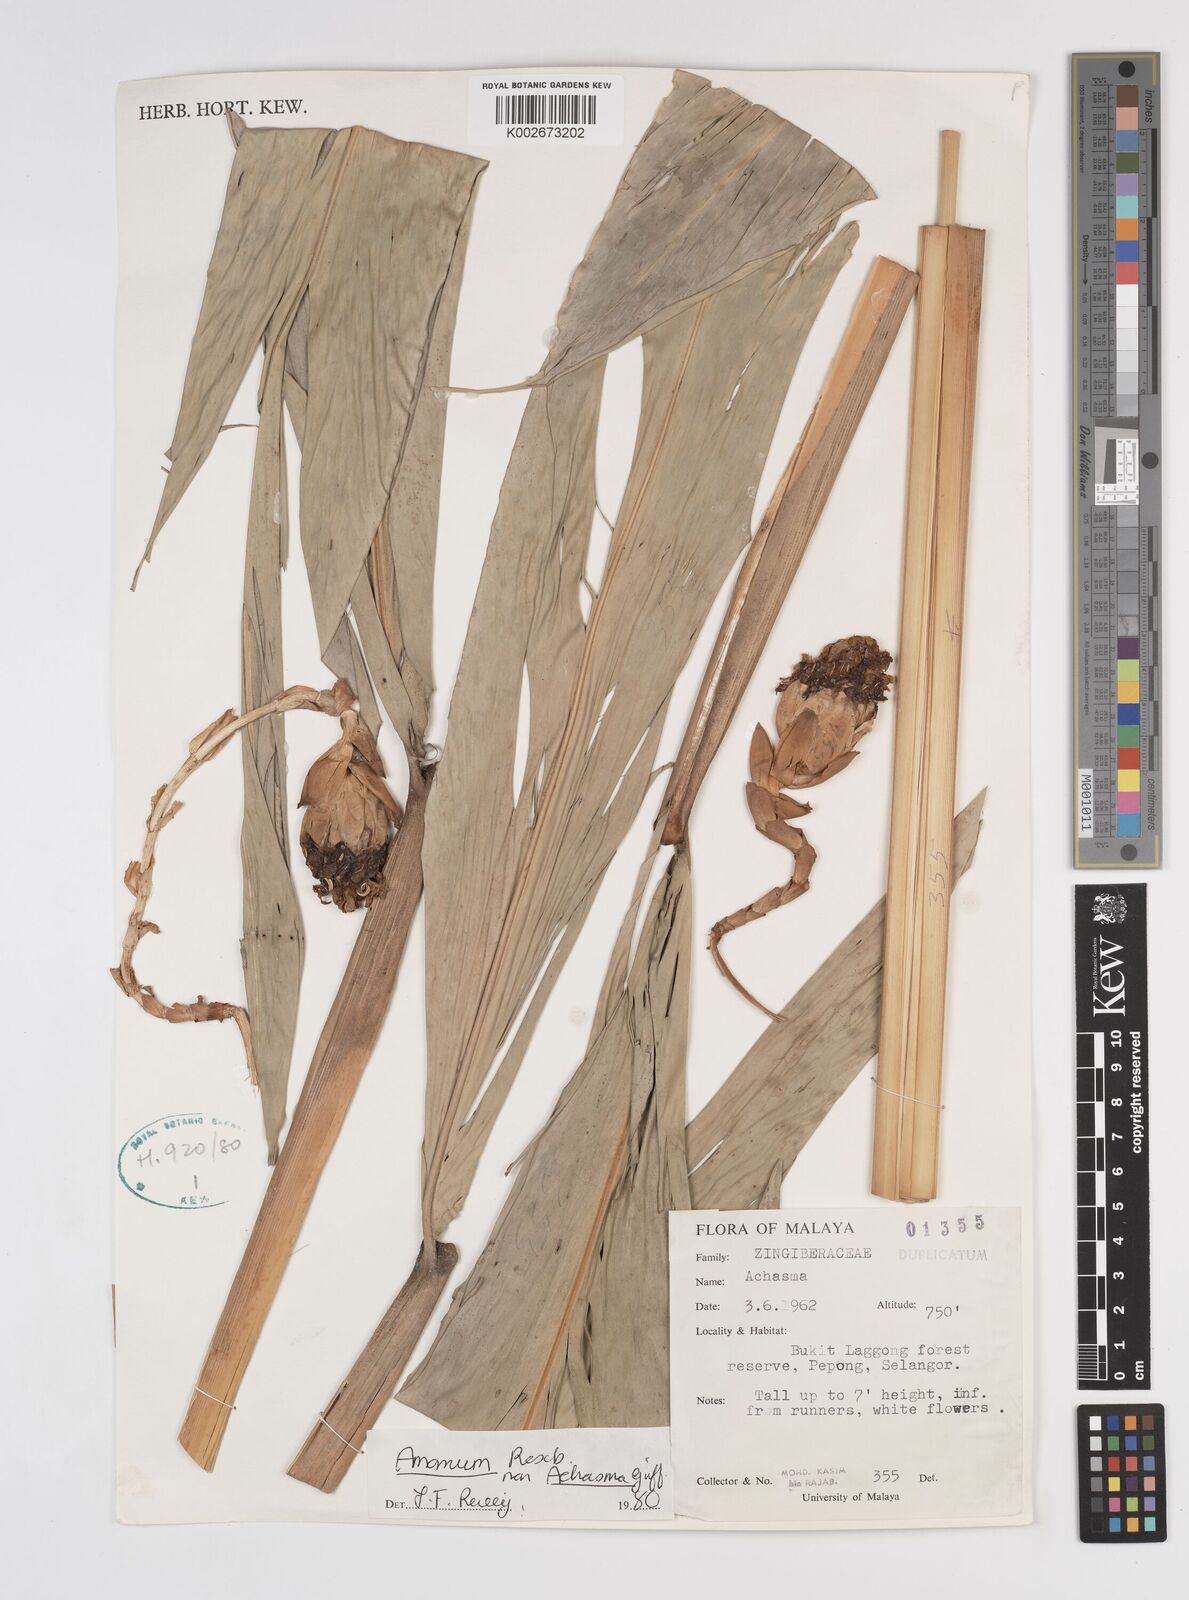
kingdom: Plantae
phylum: Tracheophyta
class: Liliopsida
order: Zingiberales
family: Zingiberaceae
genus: Amomum
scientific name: Amomum
